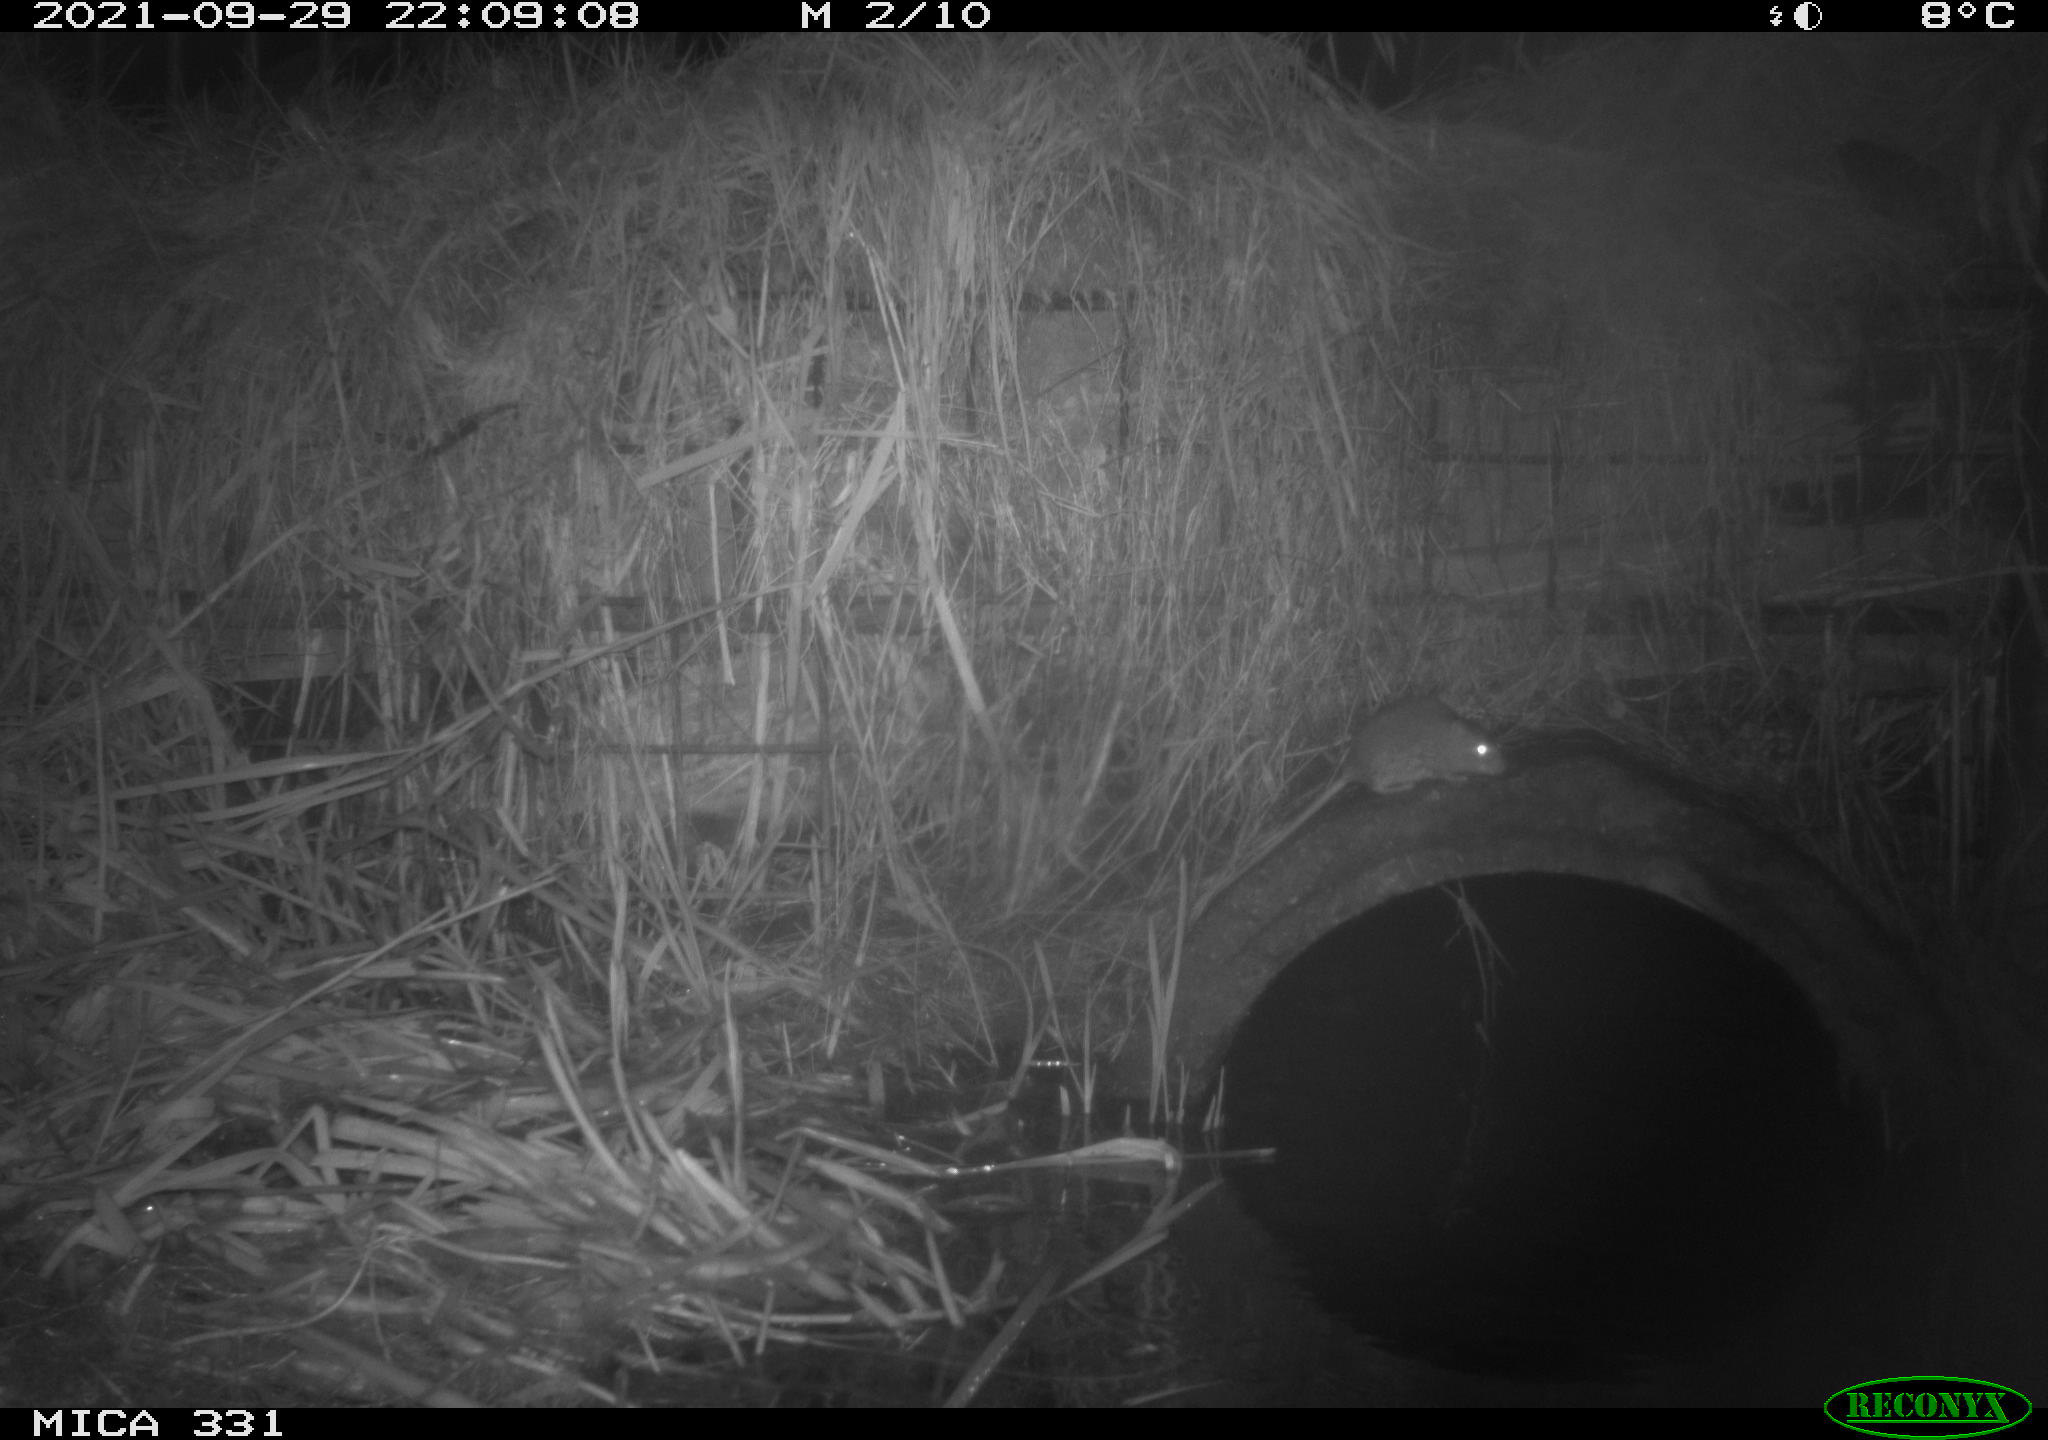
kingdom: Animalia
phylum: Chordata
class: Mammalia
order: Rodentia
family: Muridae
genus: Rattus
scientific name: Rattus norvegicus
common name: Brown rat
